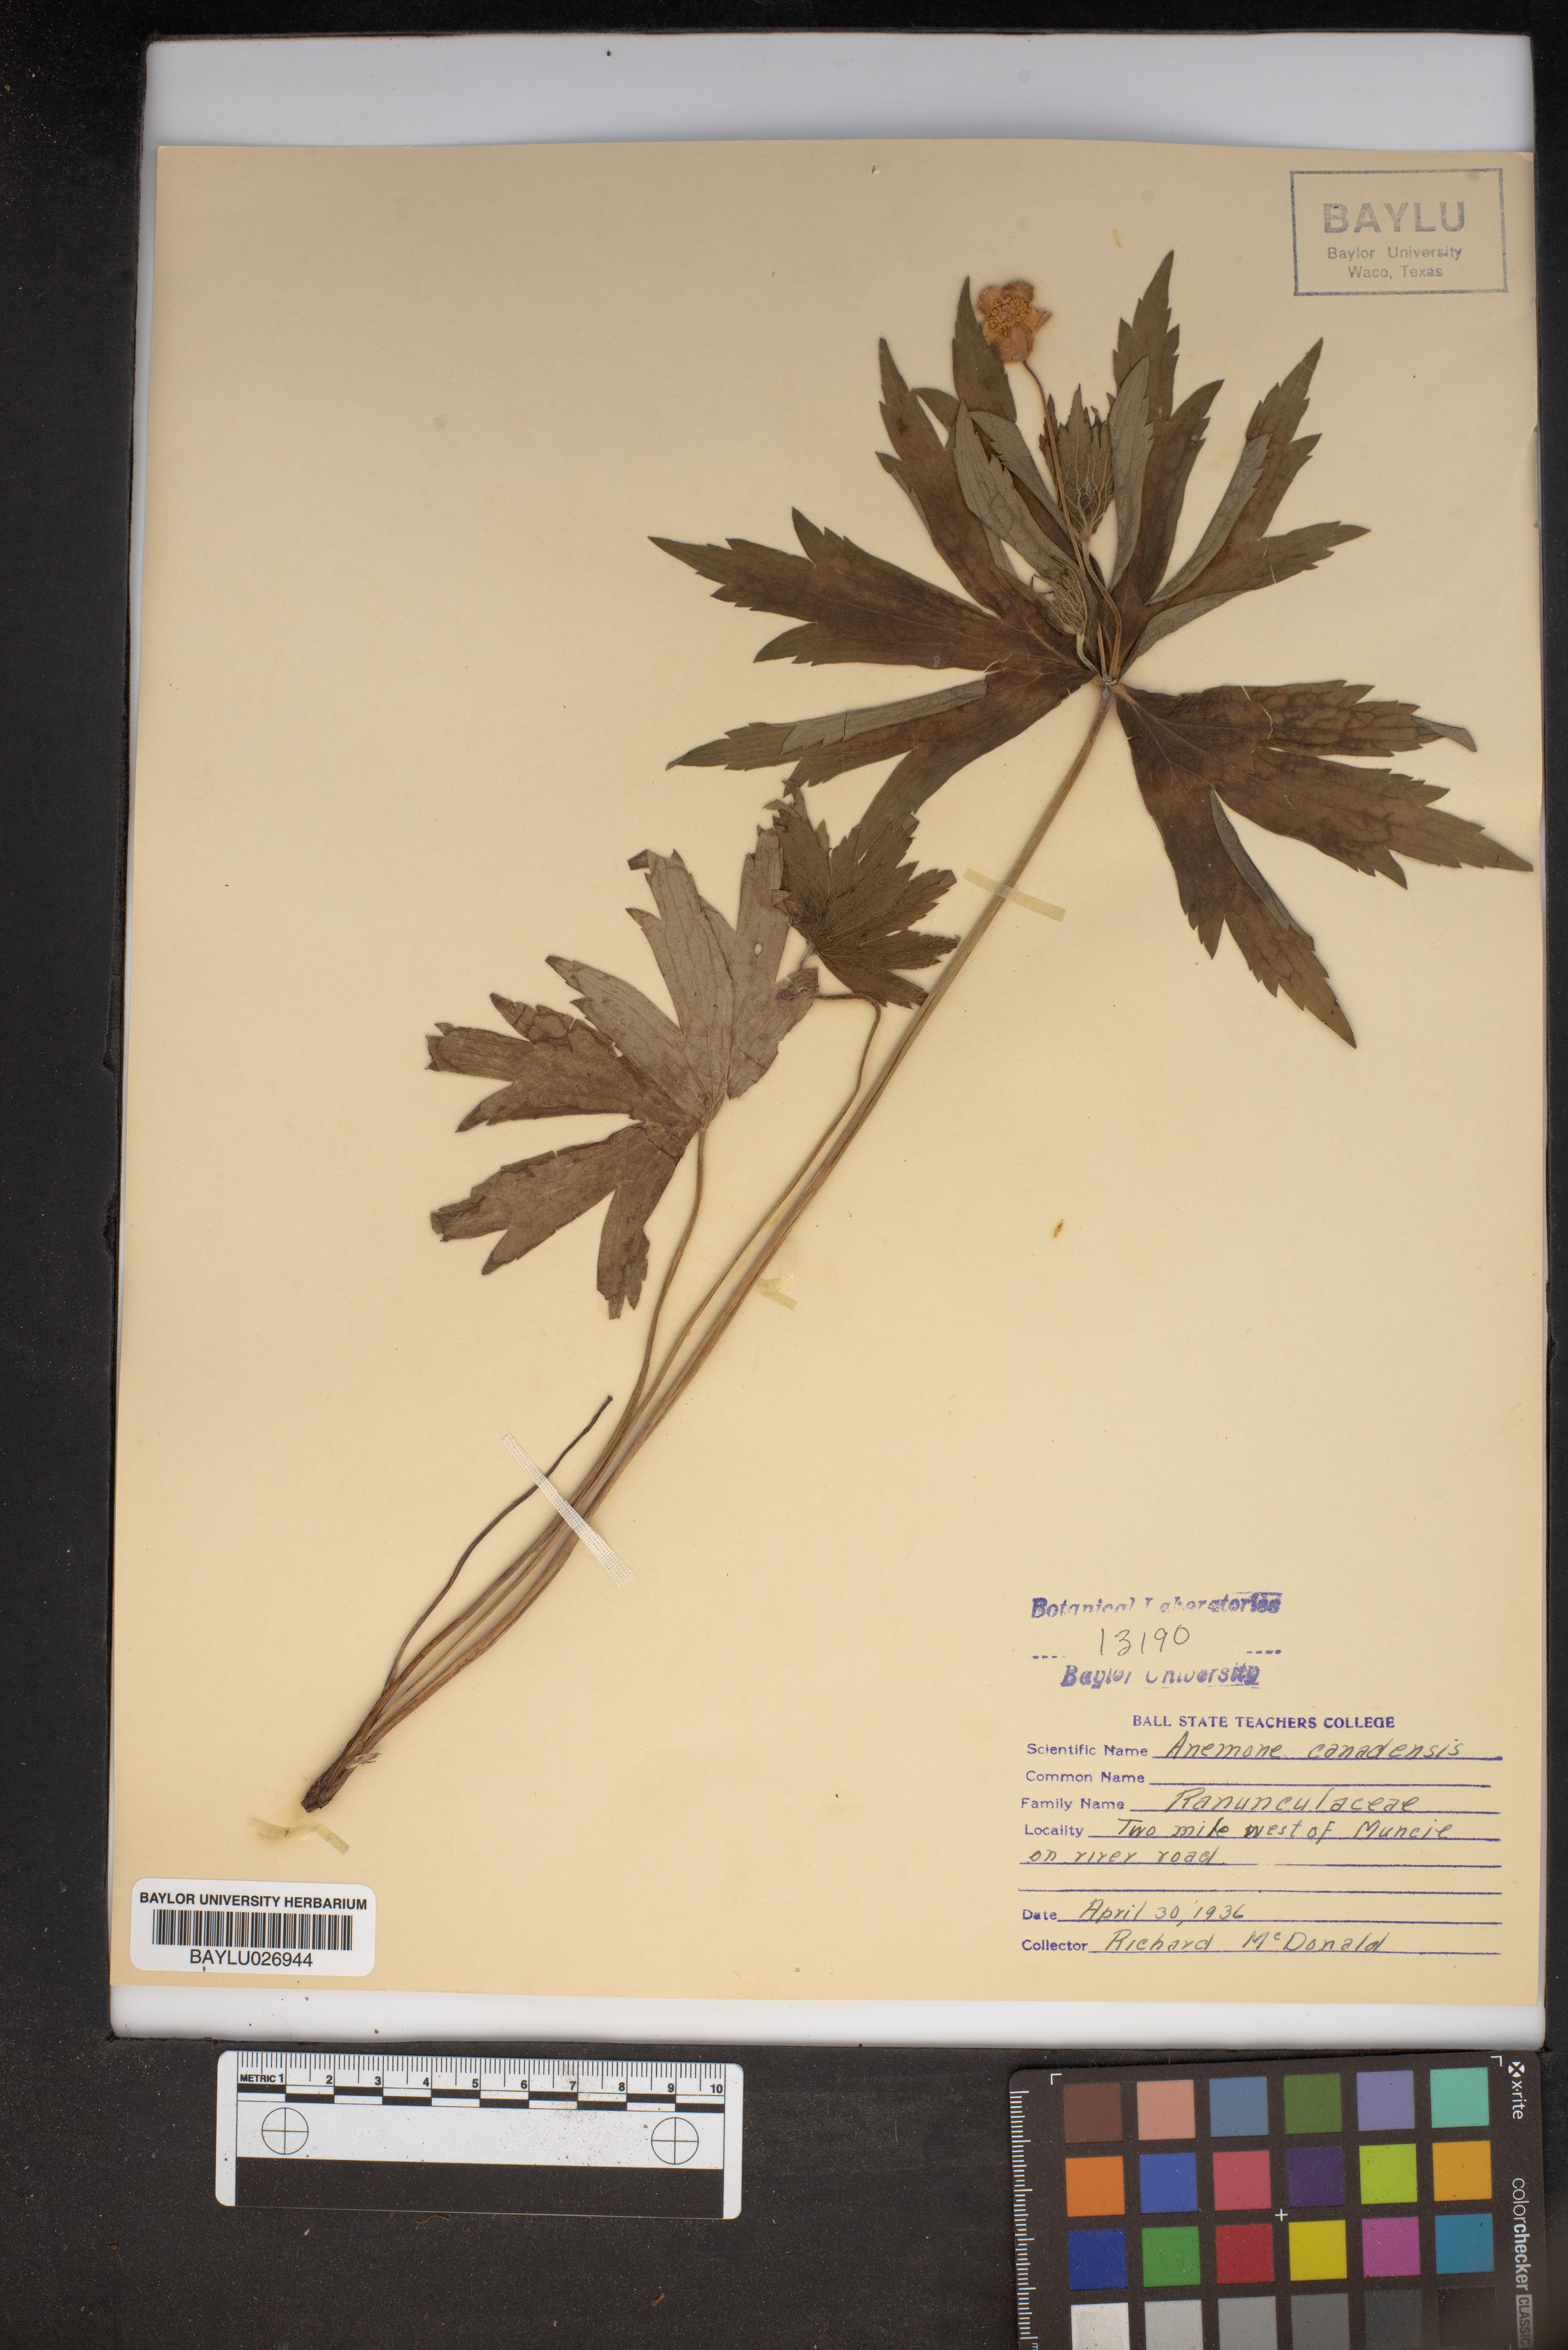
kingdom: Plantae
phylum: Tracheophyta
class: Magnoliopsida
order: Ranunculales
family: Ranunculaceae
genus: Anemonastrum
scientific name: Anemonastrum canadense
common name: Canada anemone
